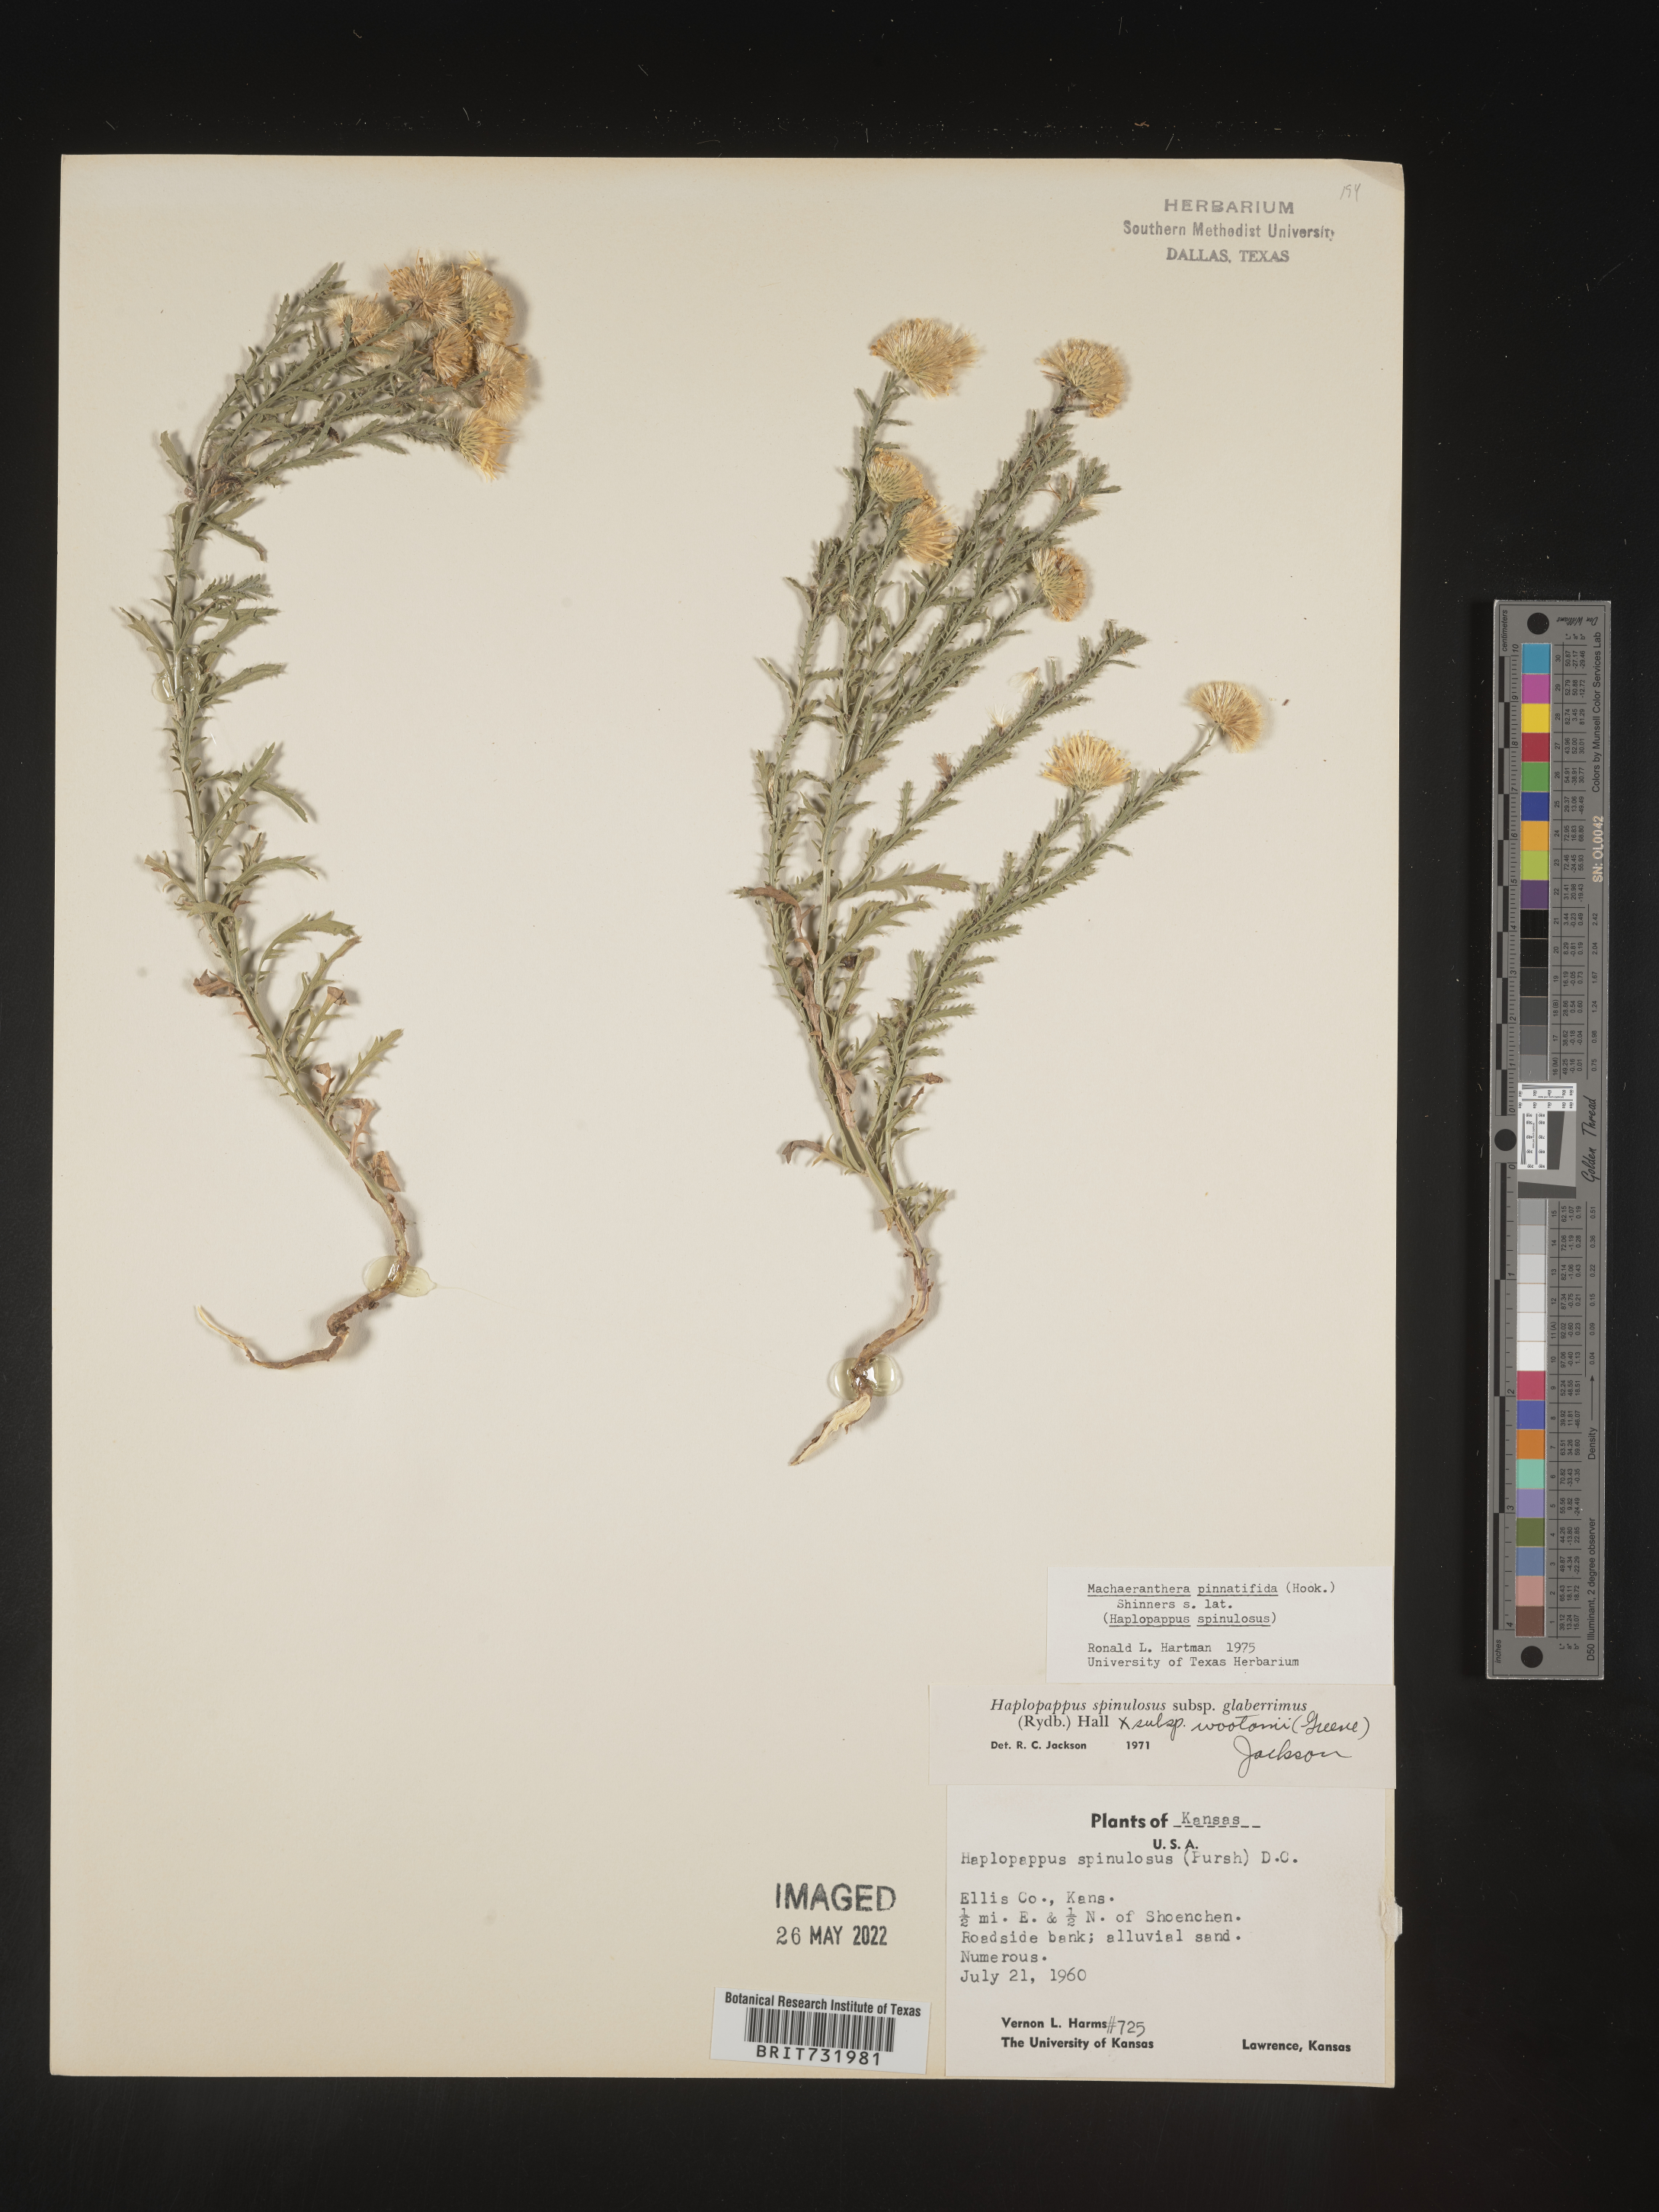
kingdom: Plantae
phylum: Tracheophyta
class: Magnoliopsida
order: Asterales
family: Asteraceae
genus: Xanthisma
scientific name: Xanthisma spinulosum
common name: Spiny goldenweed
